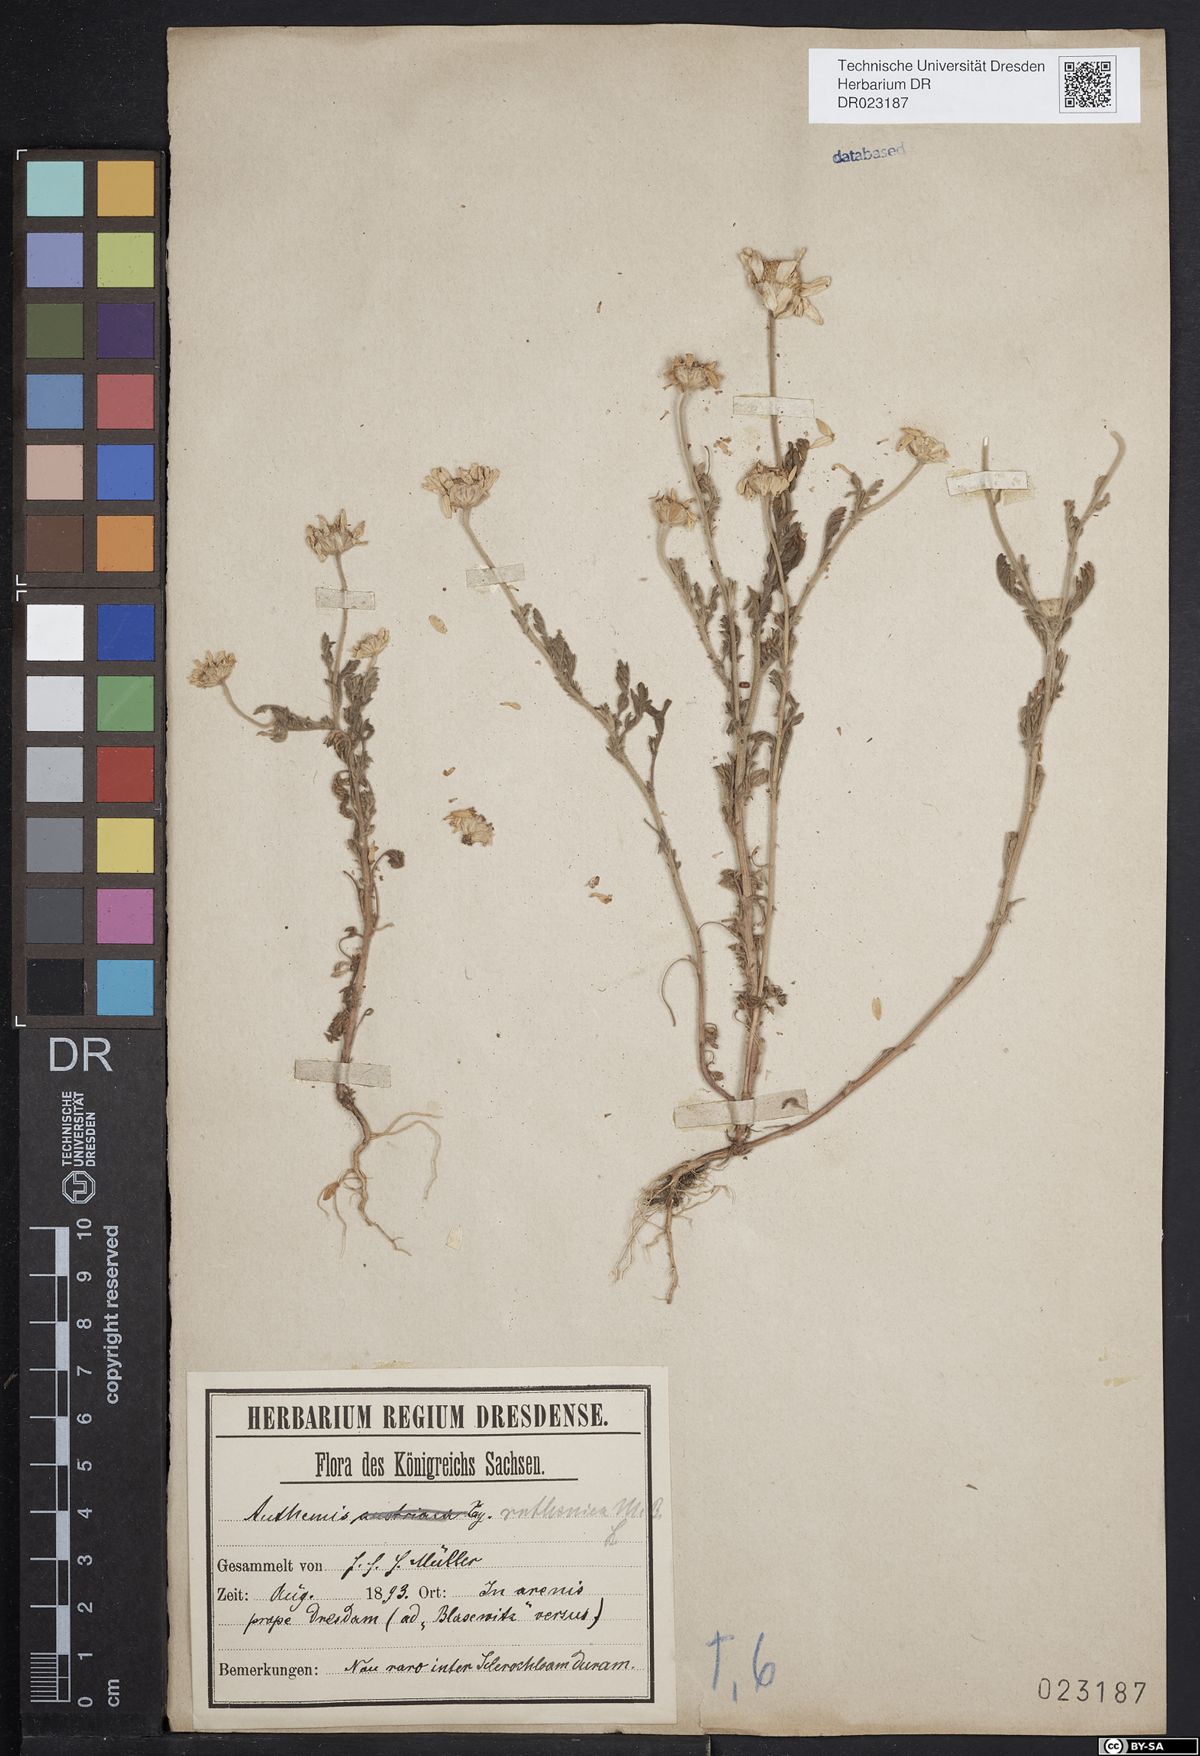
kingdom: Plantae
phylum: Tracheophyta
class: Magnoliopsida
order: Asterales
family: Asteraceae
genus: Anthemis
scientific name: Anthemis ruthenica
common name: Eastern chamomile
